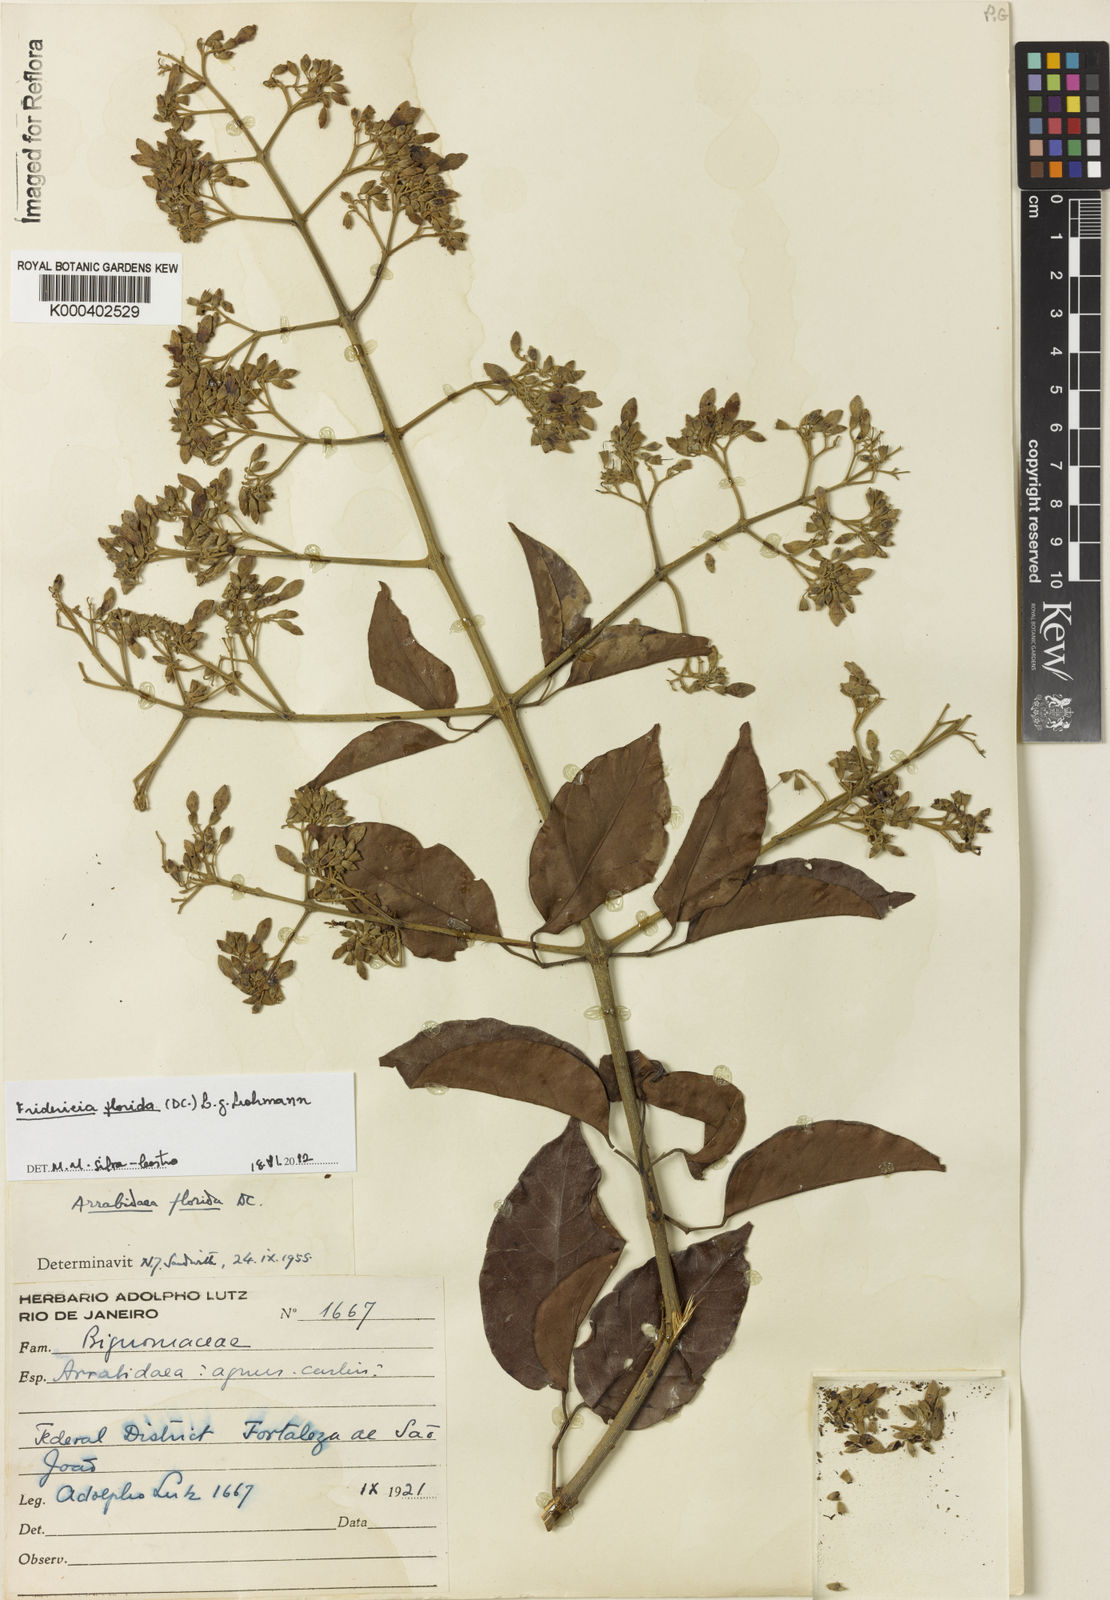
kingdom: Plantae
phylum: Tracheophyta
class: Magnoliopsida
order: Lamiales
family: Bignoniaceae
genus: Fridericia
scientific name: Fridericia florida
